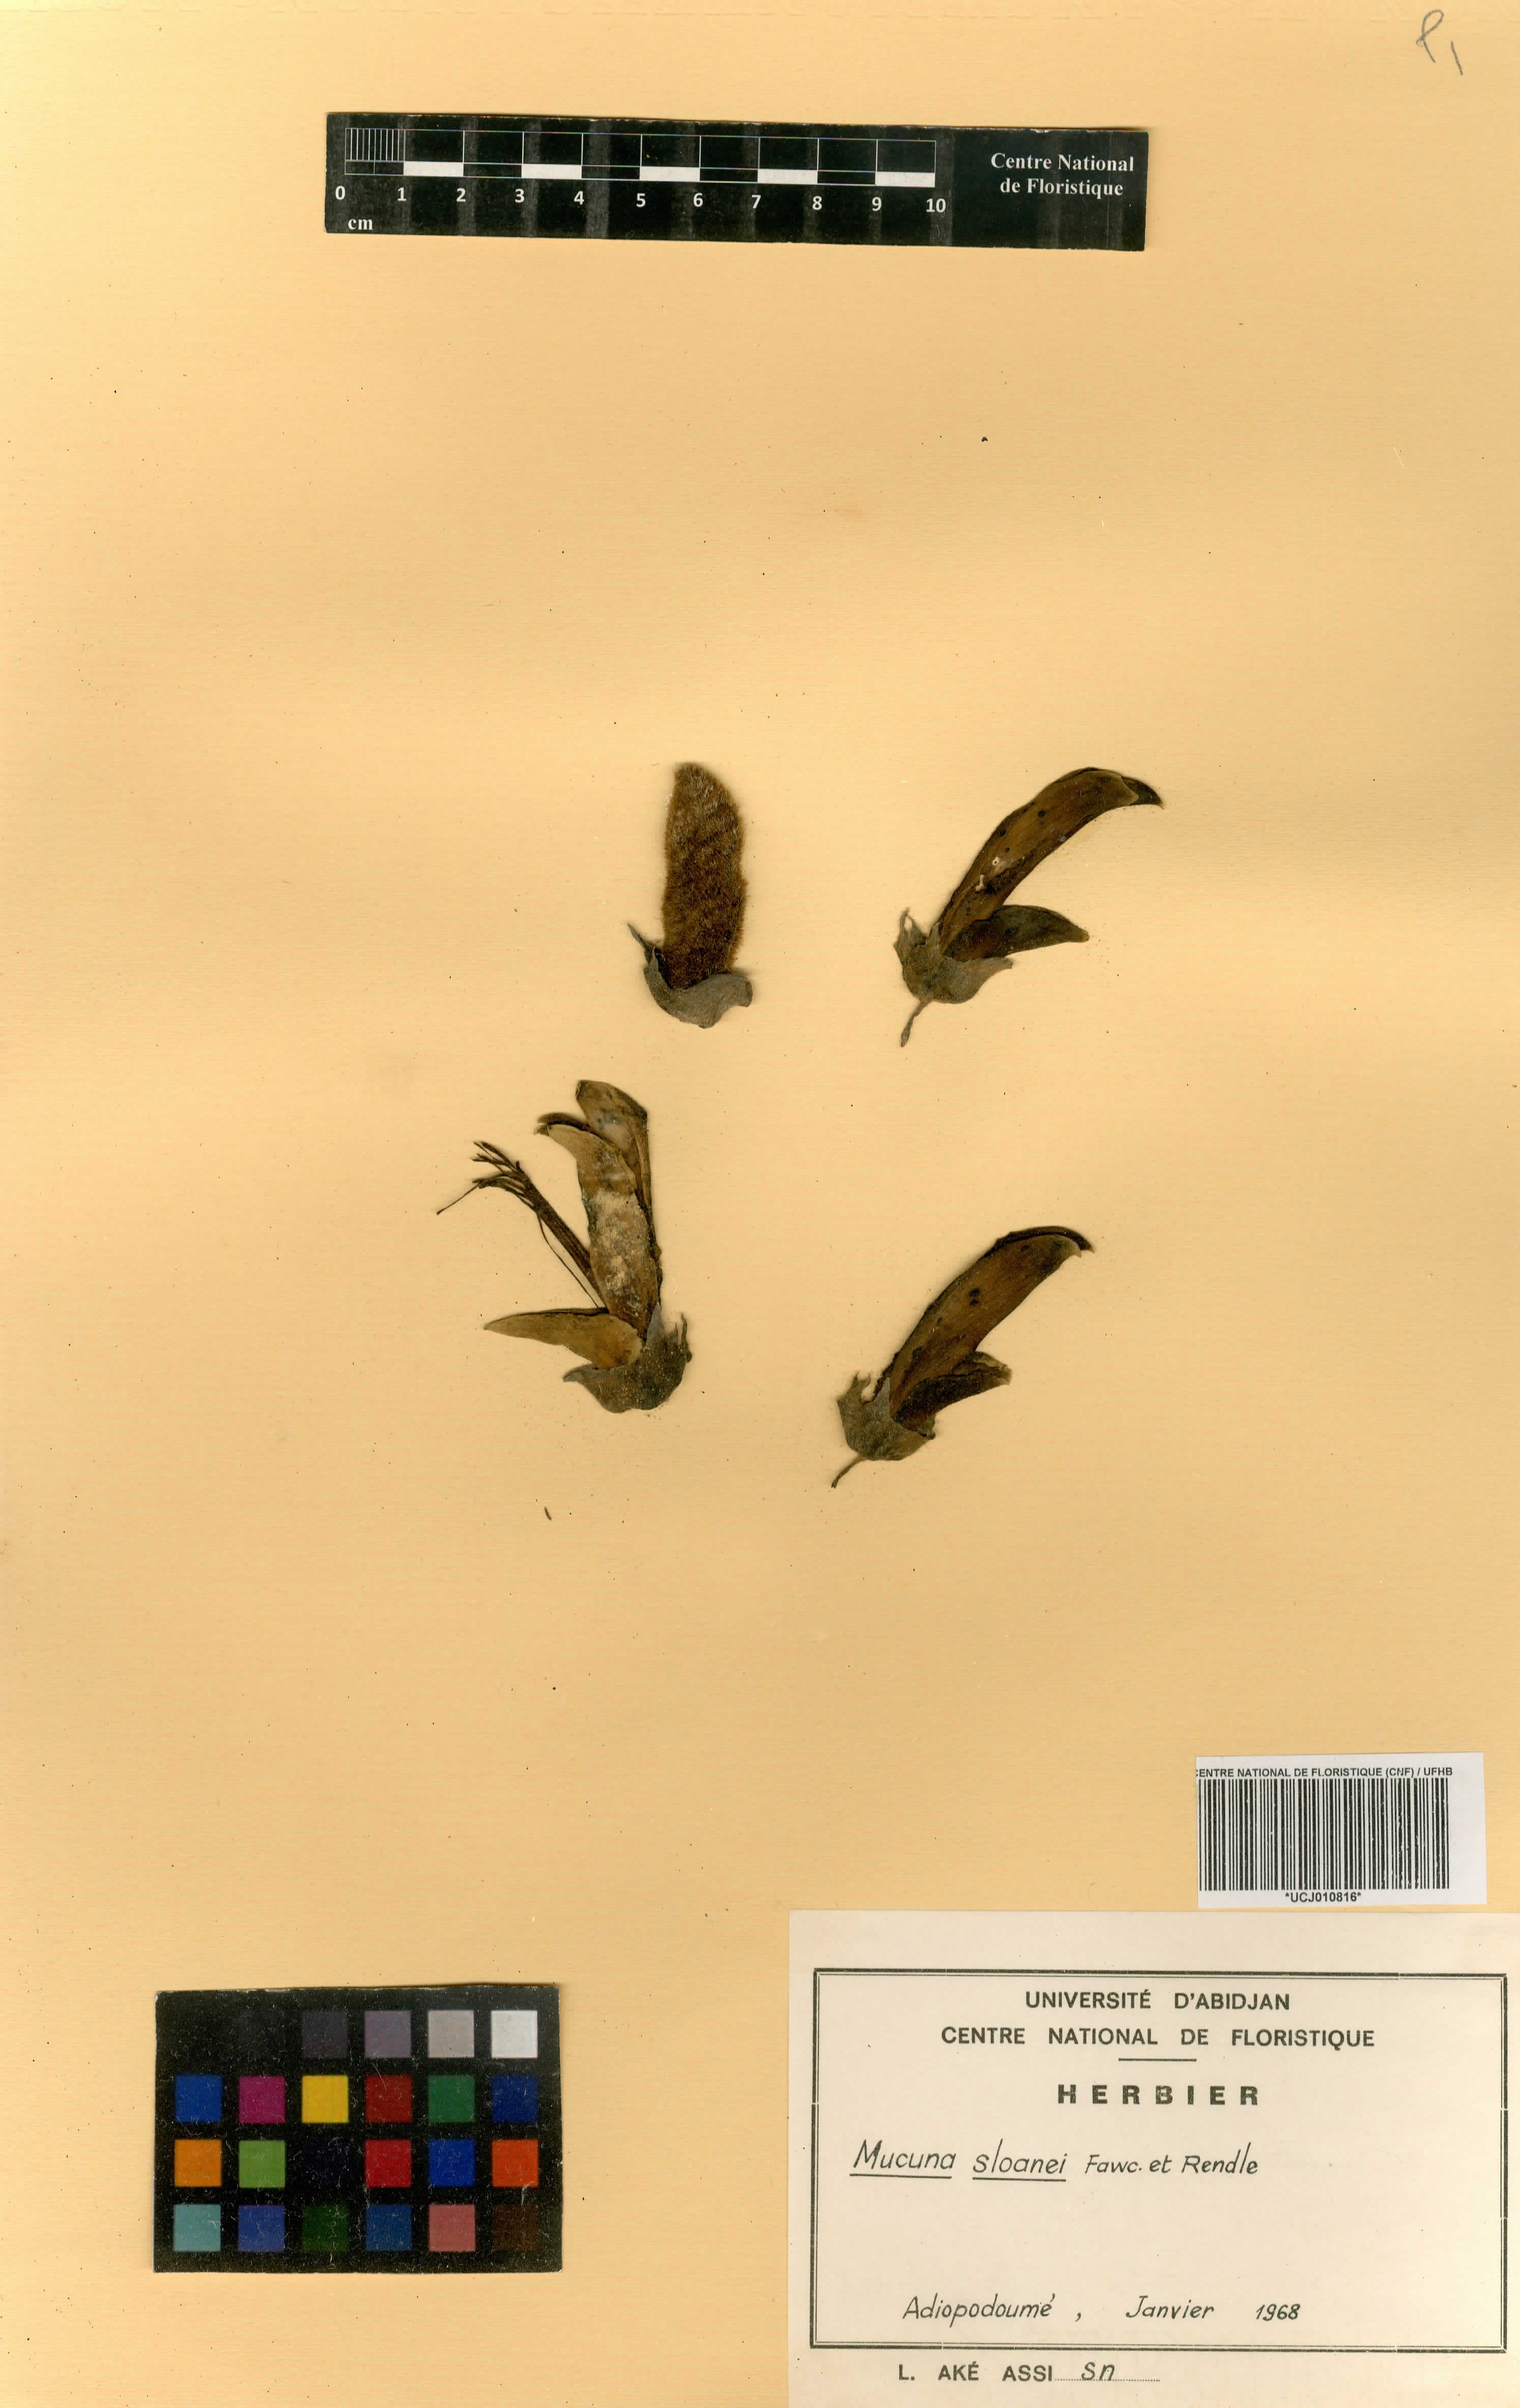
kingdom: Plantae
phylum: Tracheophyta
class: Magnoliopsida
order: Fabales
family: Fabaceae
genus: Mucuna
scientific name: Mucuna sloanei
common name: Horse-eye bean
